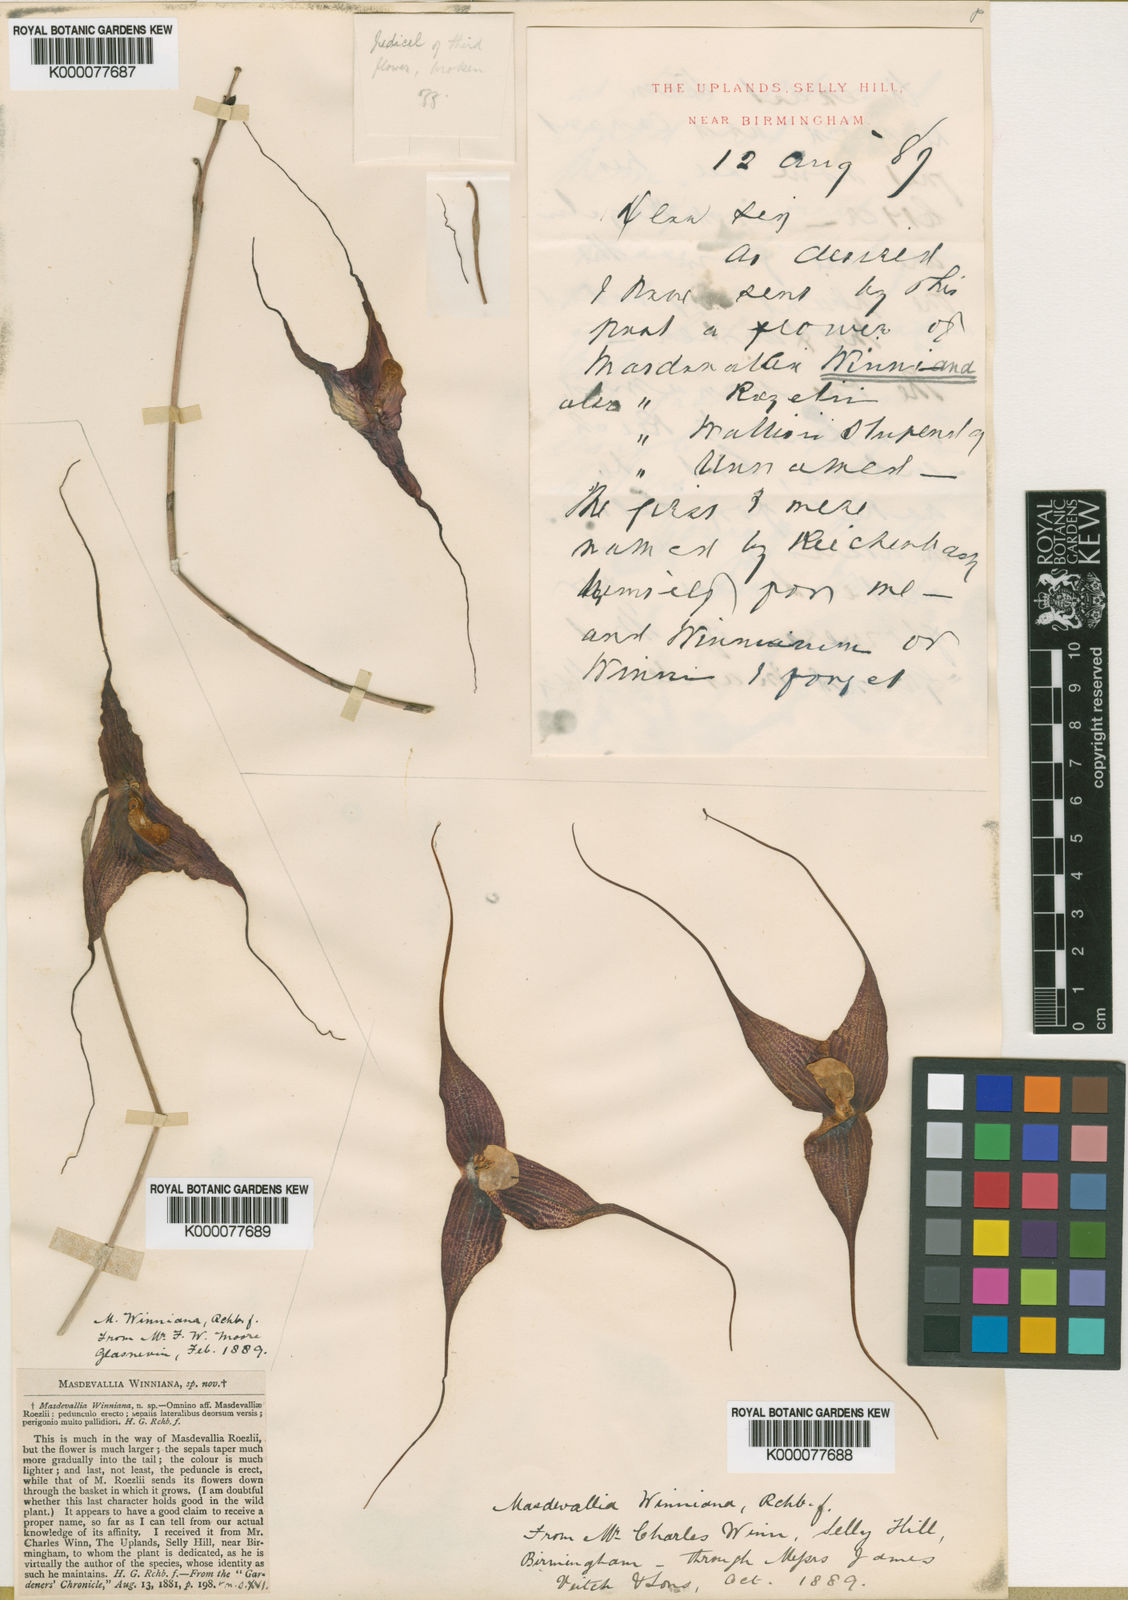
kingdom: Plantae
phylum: Tracheophyta
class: Liliopsida
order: Asparagales
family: Orchidaceae
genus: Dracula
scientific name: Dracula roezlii
